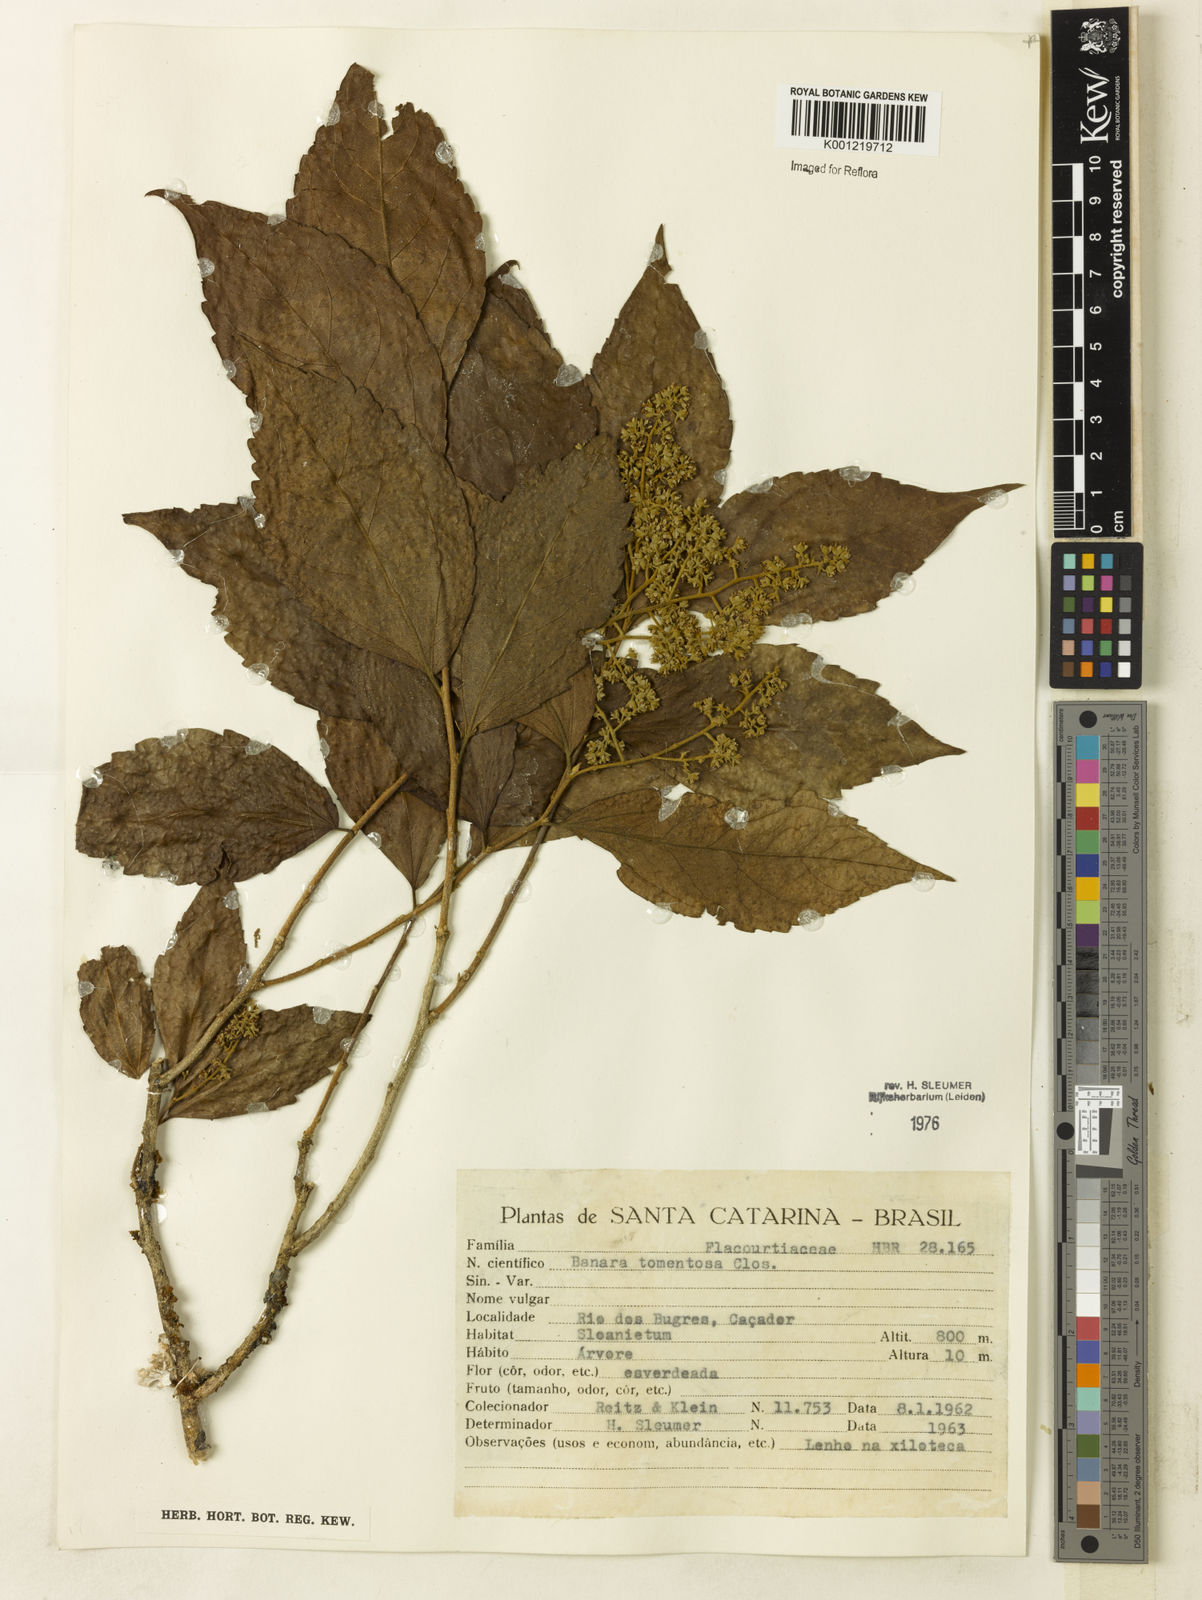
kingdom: Plantae
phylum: Tracheophyta
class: Magnoliopsida
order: Malpighiales
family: Salicaceae
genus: Banara
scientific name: Banara tomentosa
